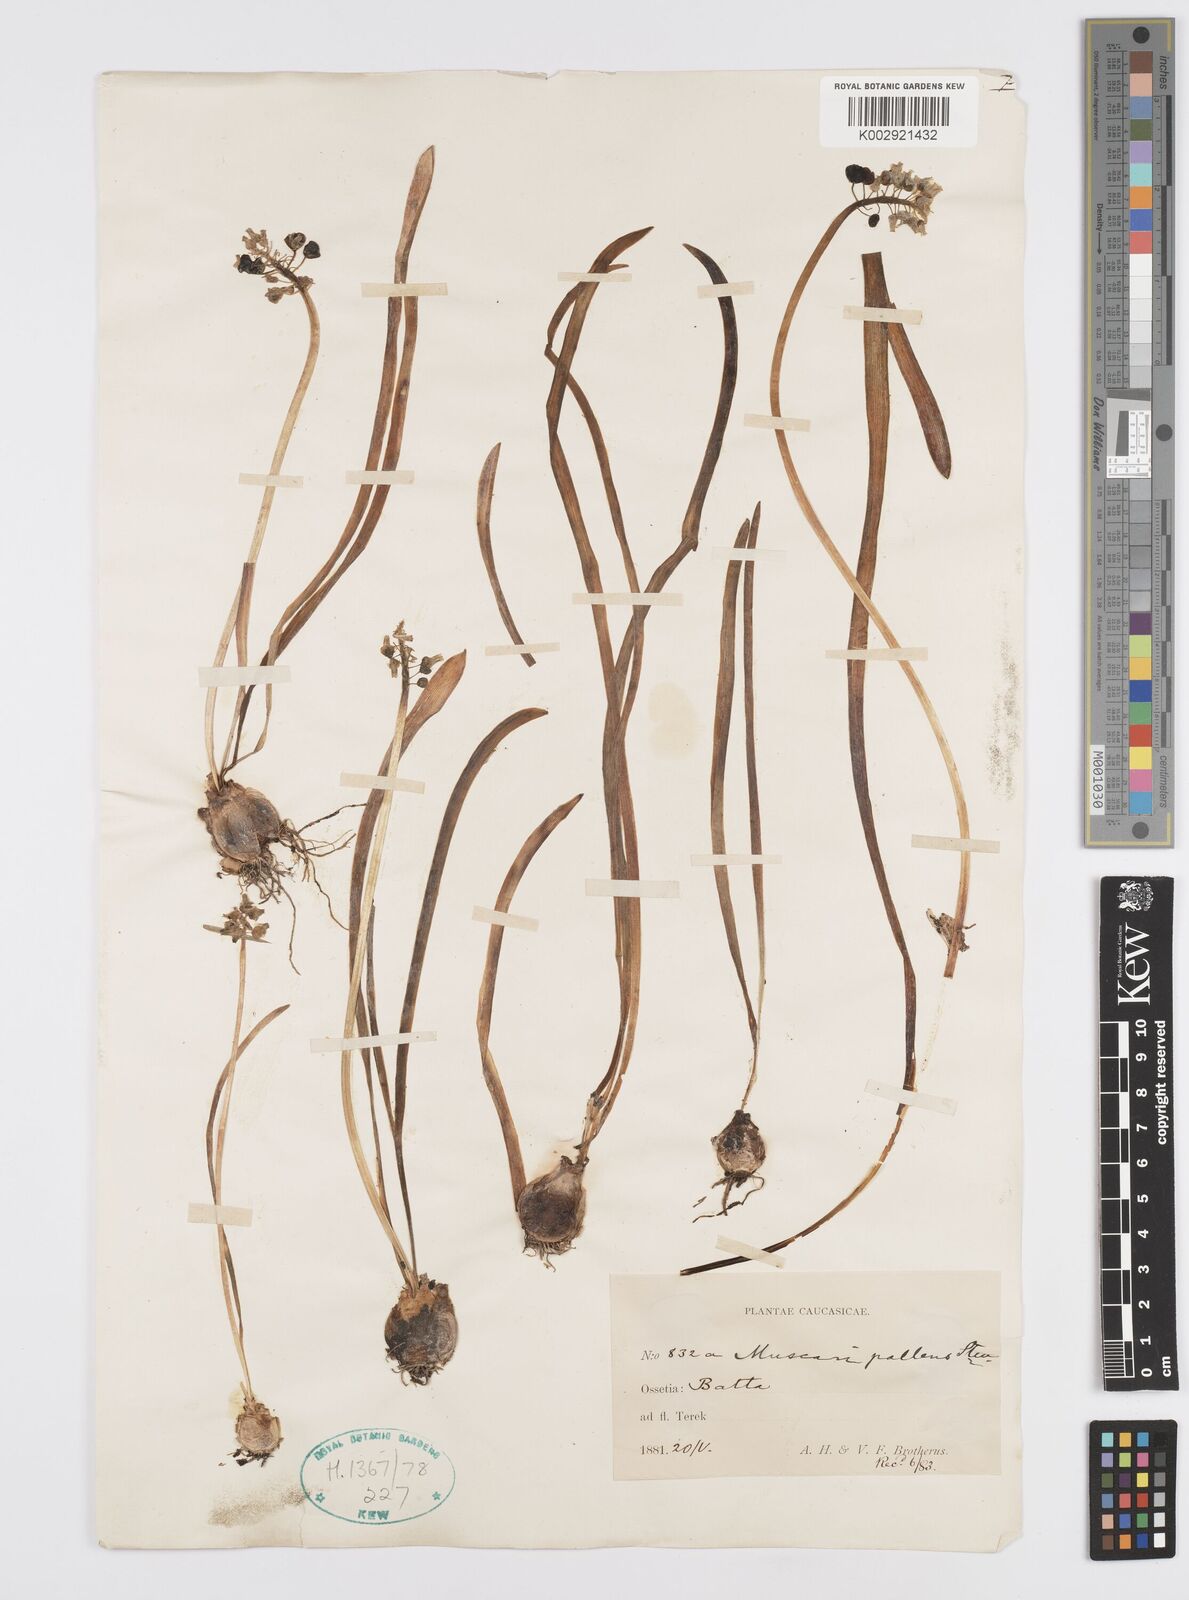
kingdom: Plantae
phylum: Tracheophyta
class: Liliopsida
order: Asparagales
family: Asparagaceae
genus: Muscari
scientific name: Muscari
